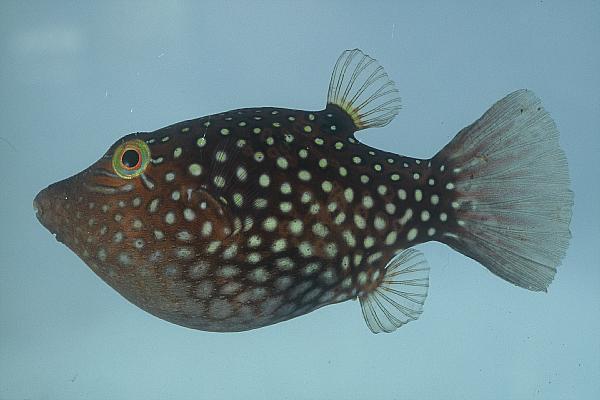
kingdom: Animalia
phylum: Chordata
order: Tetraodontiformes
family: Tetraodontidae
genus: Canthigaster
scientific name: Canthigaster janthinoptera
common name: Honeycomb toby
